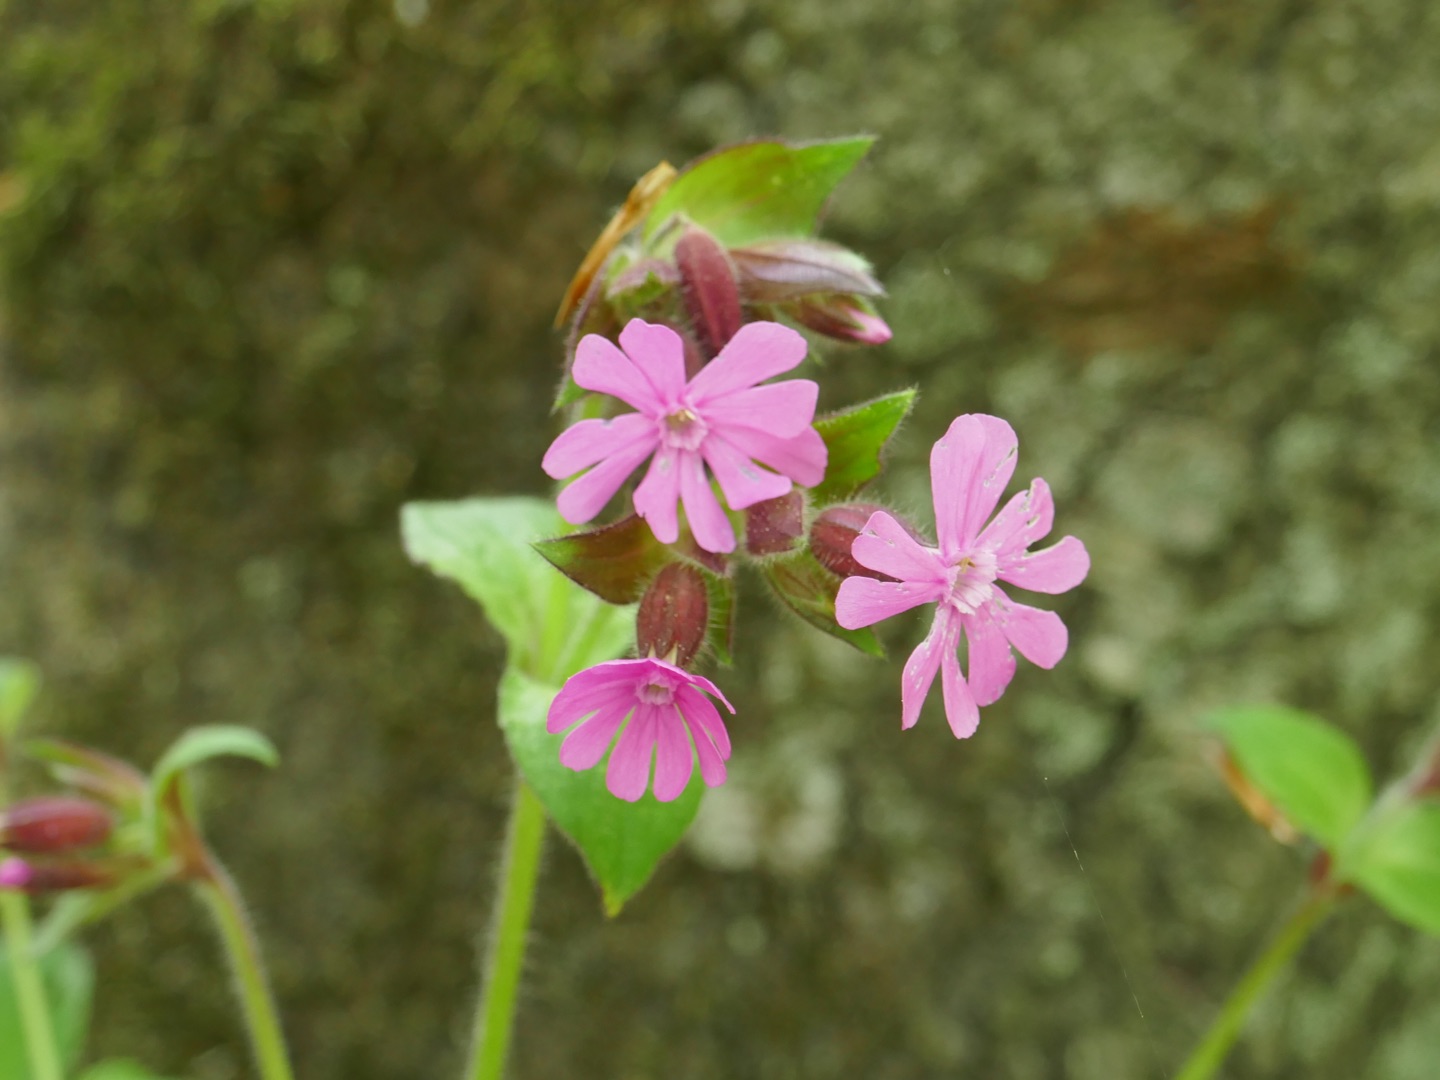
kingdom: Plantae
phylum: Tracheophyta
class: Magnoliopsida
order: Caryophyllales
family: Caryophyllaceae
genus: Silene
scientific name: Silene dioica
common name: Dagpragtstjerne
